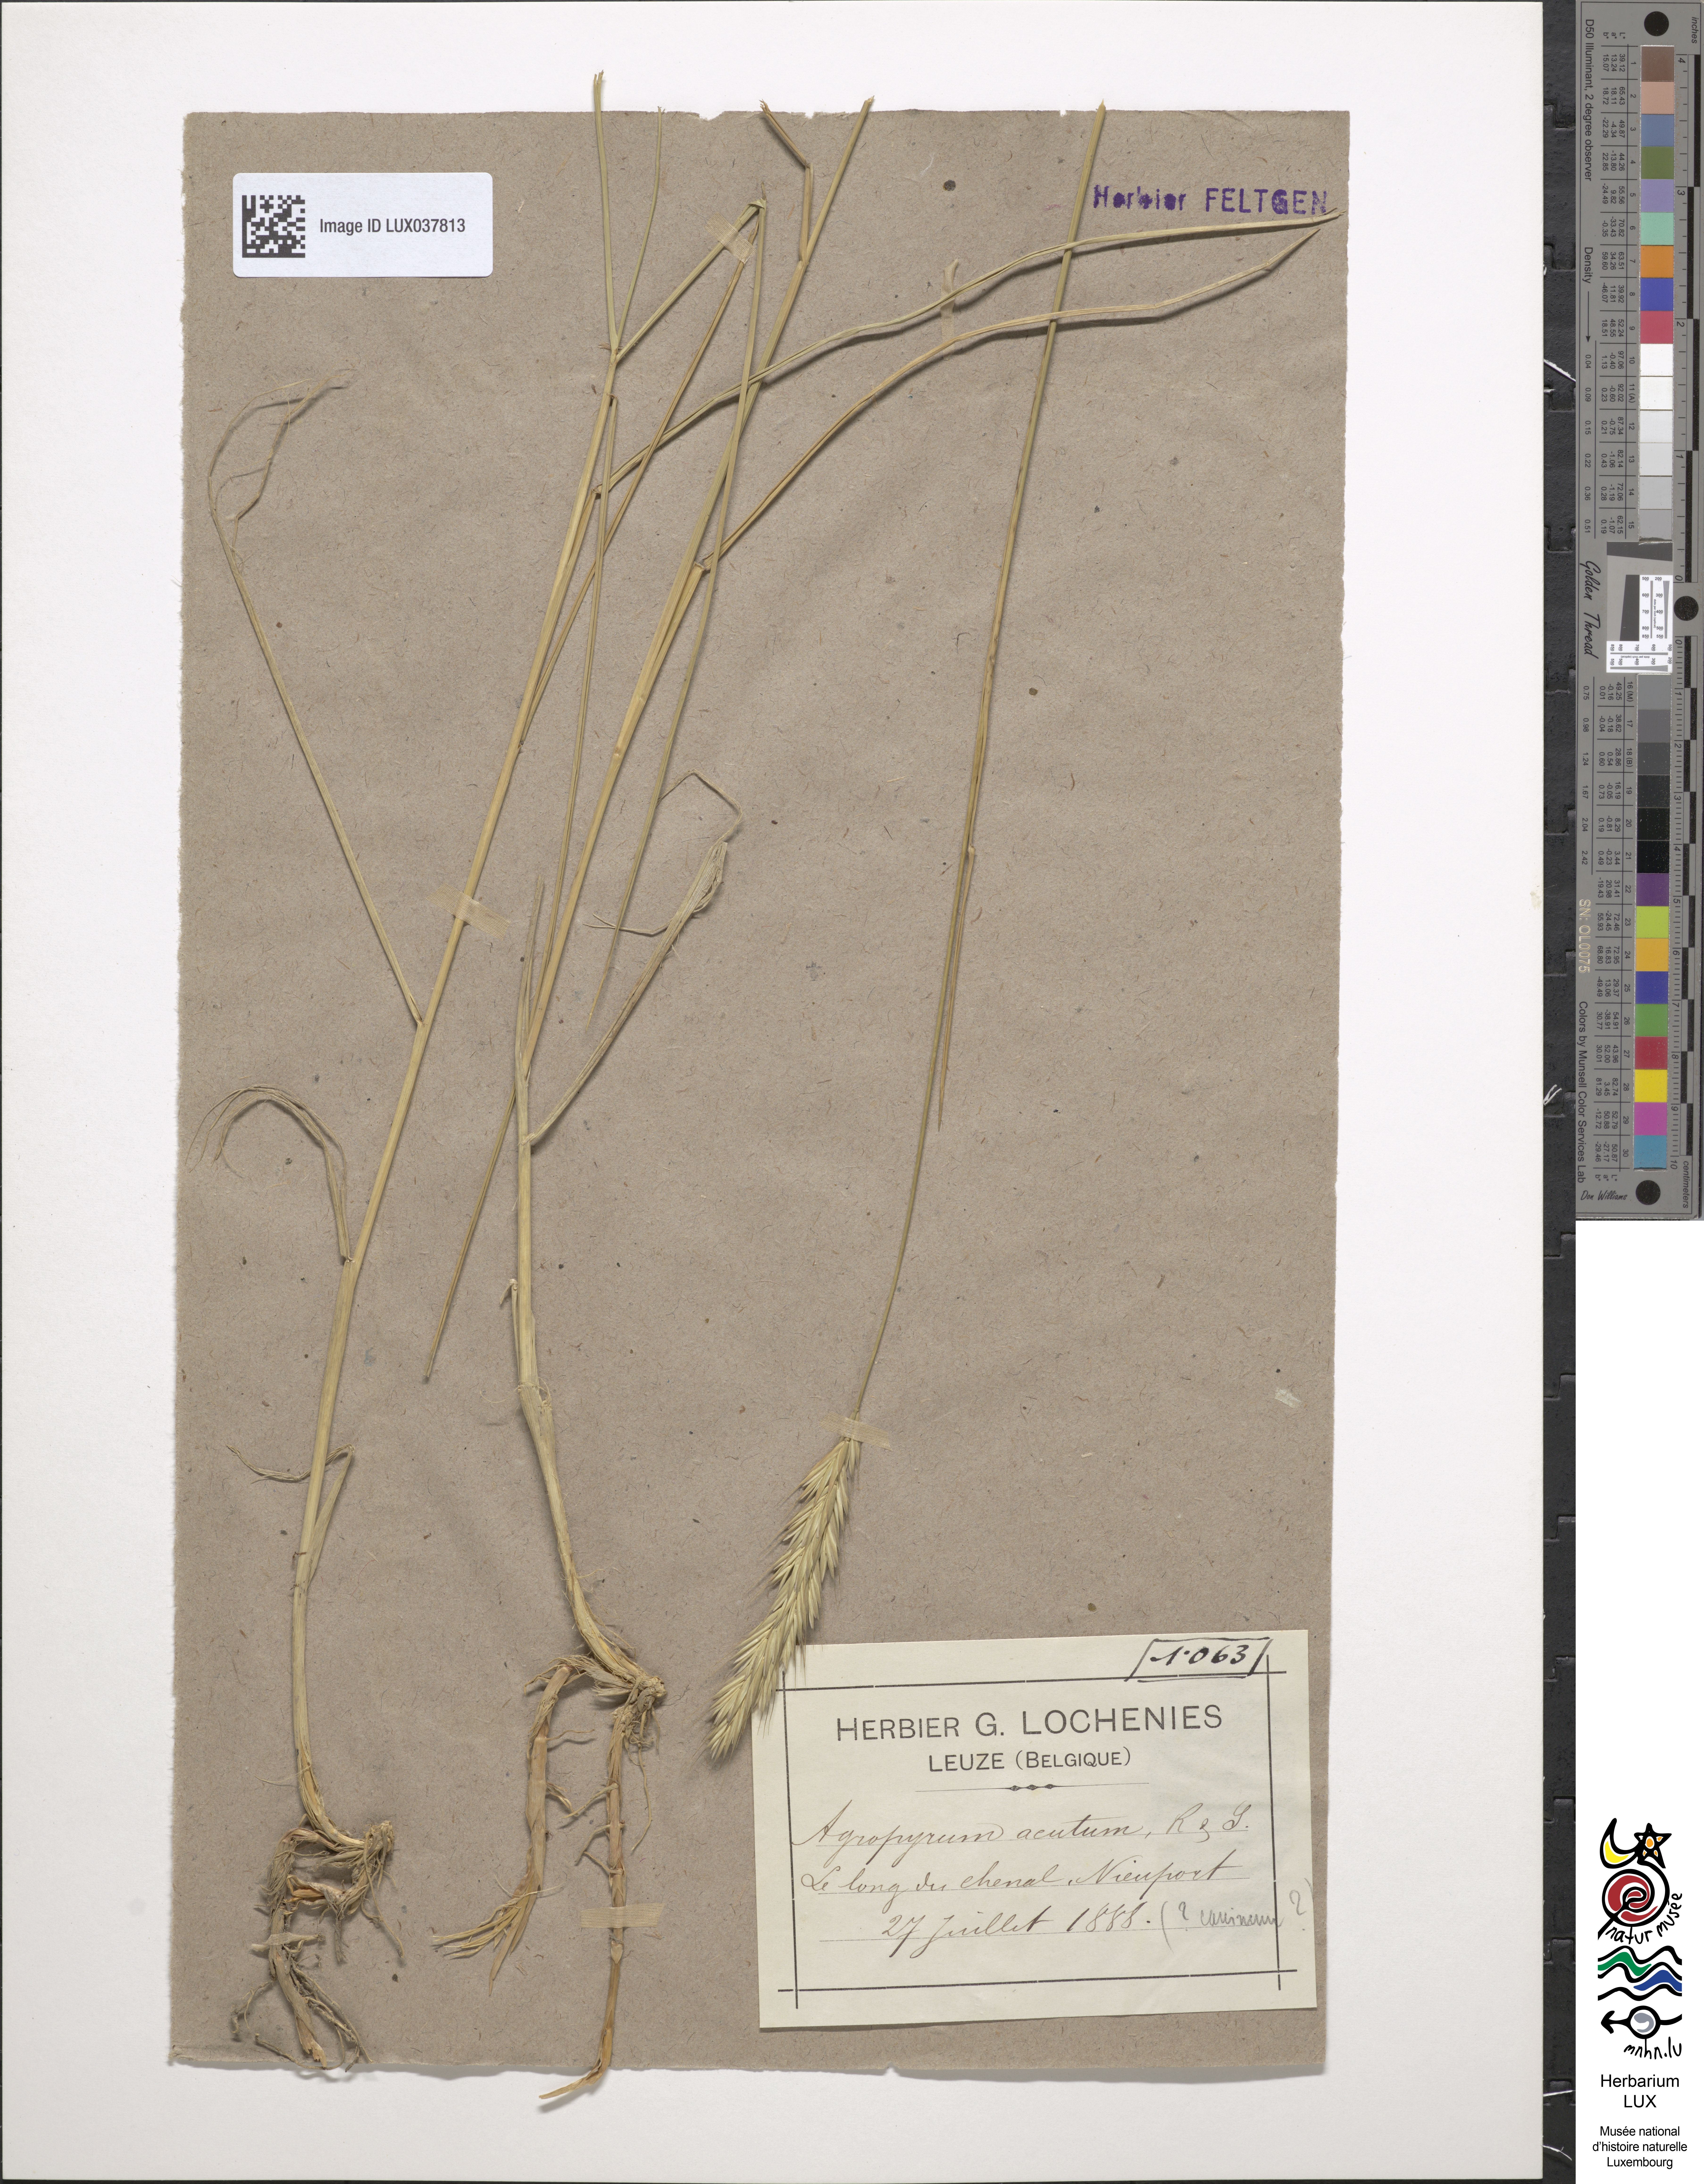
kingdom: Plantae
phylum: Tracheophyta
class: Liliopsida
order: Poales
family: Poaceae
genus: Thinopyrum
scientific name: Thinopyrum acutum
